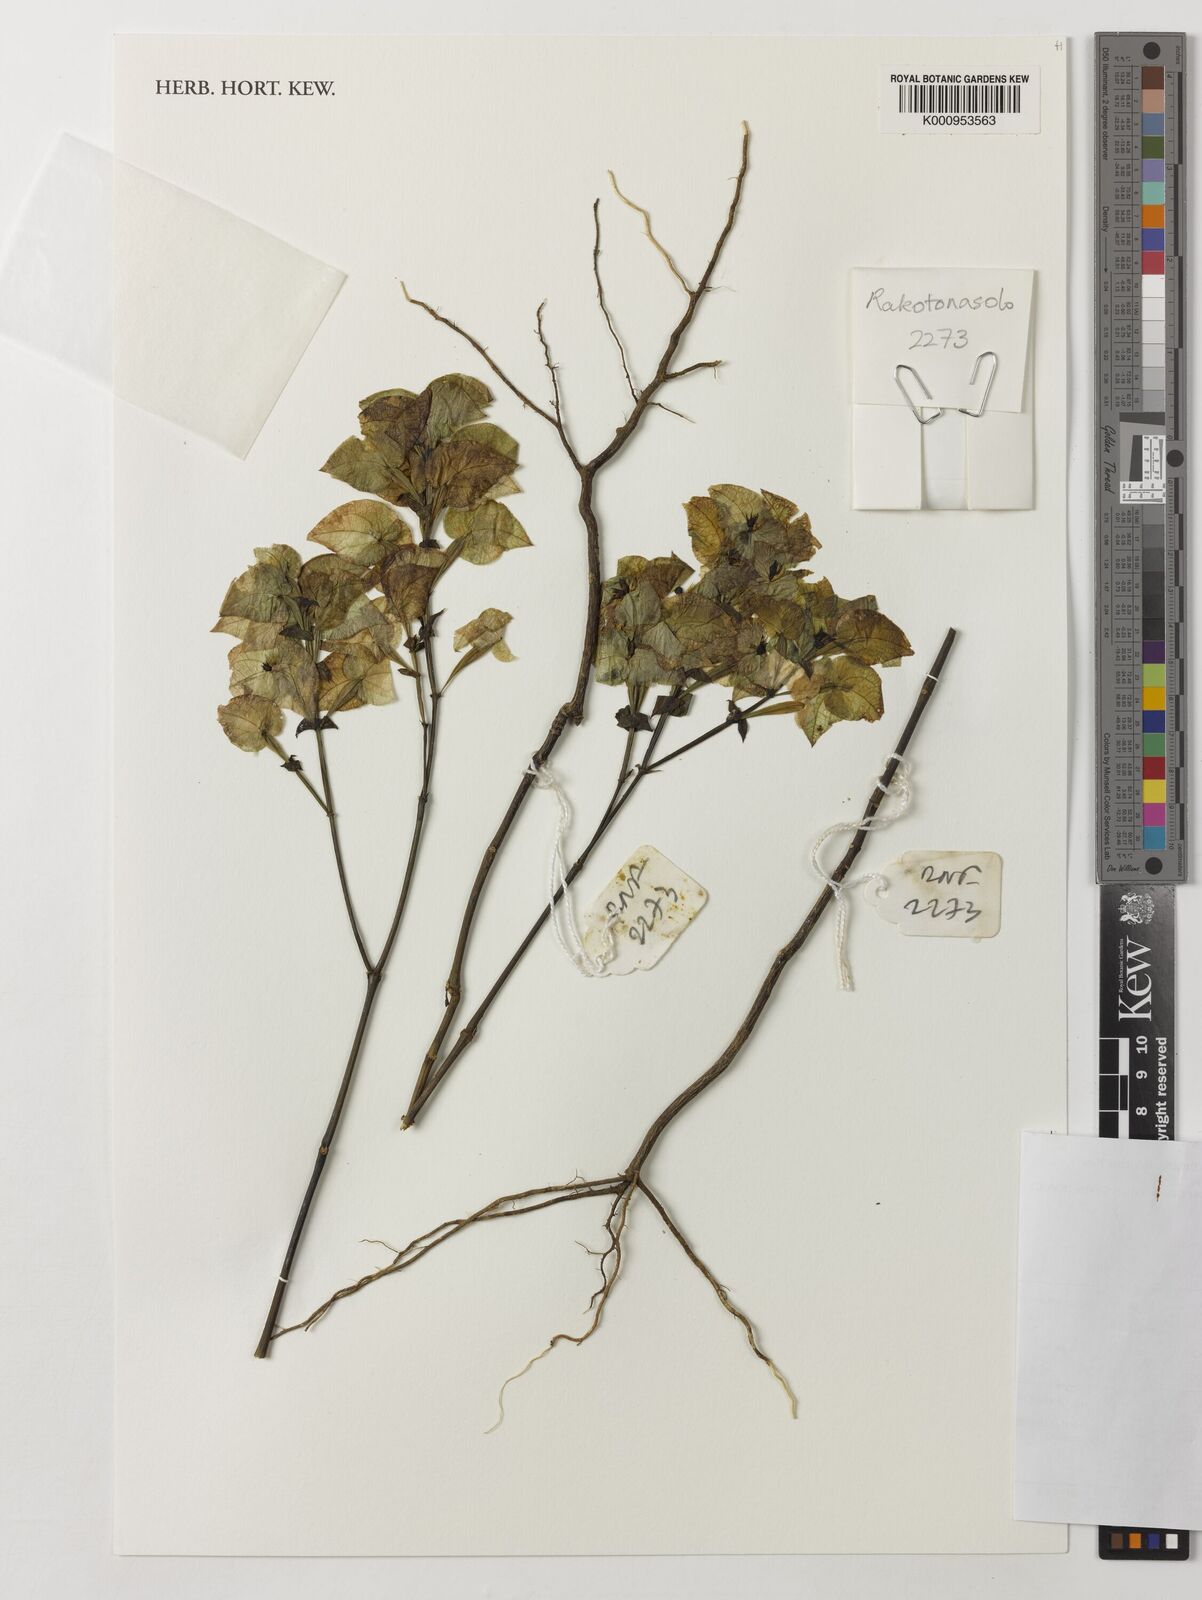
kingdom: Plantae
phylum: Tracheophyta
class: Magnoliopsida
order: Lamiales
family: Acanthaceae
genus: Chlamydacanthus
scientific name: Chlamydacanthus euphorbioides
